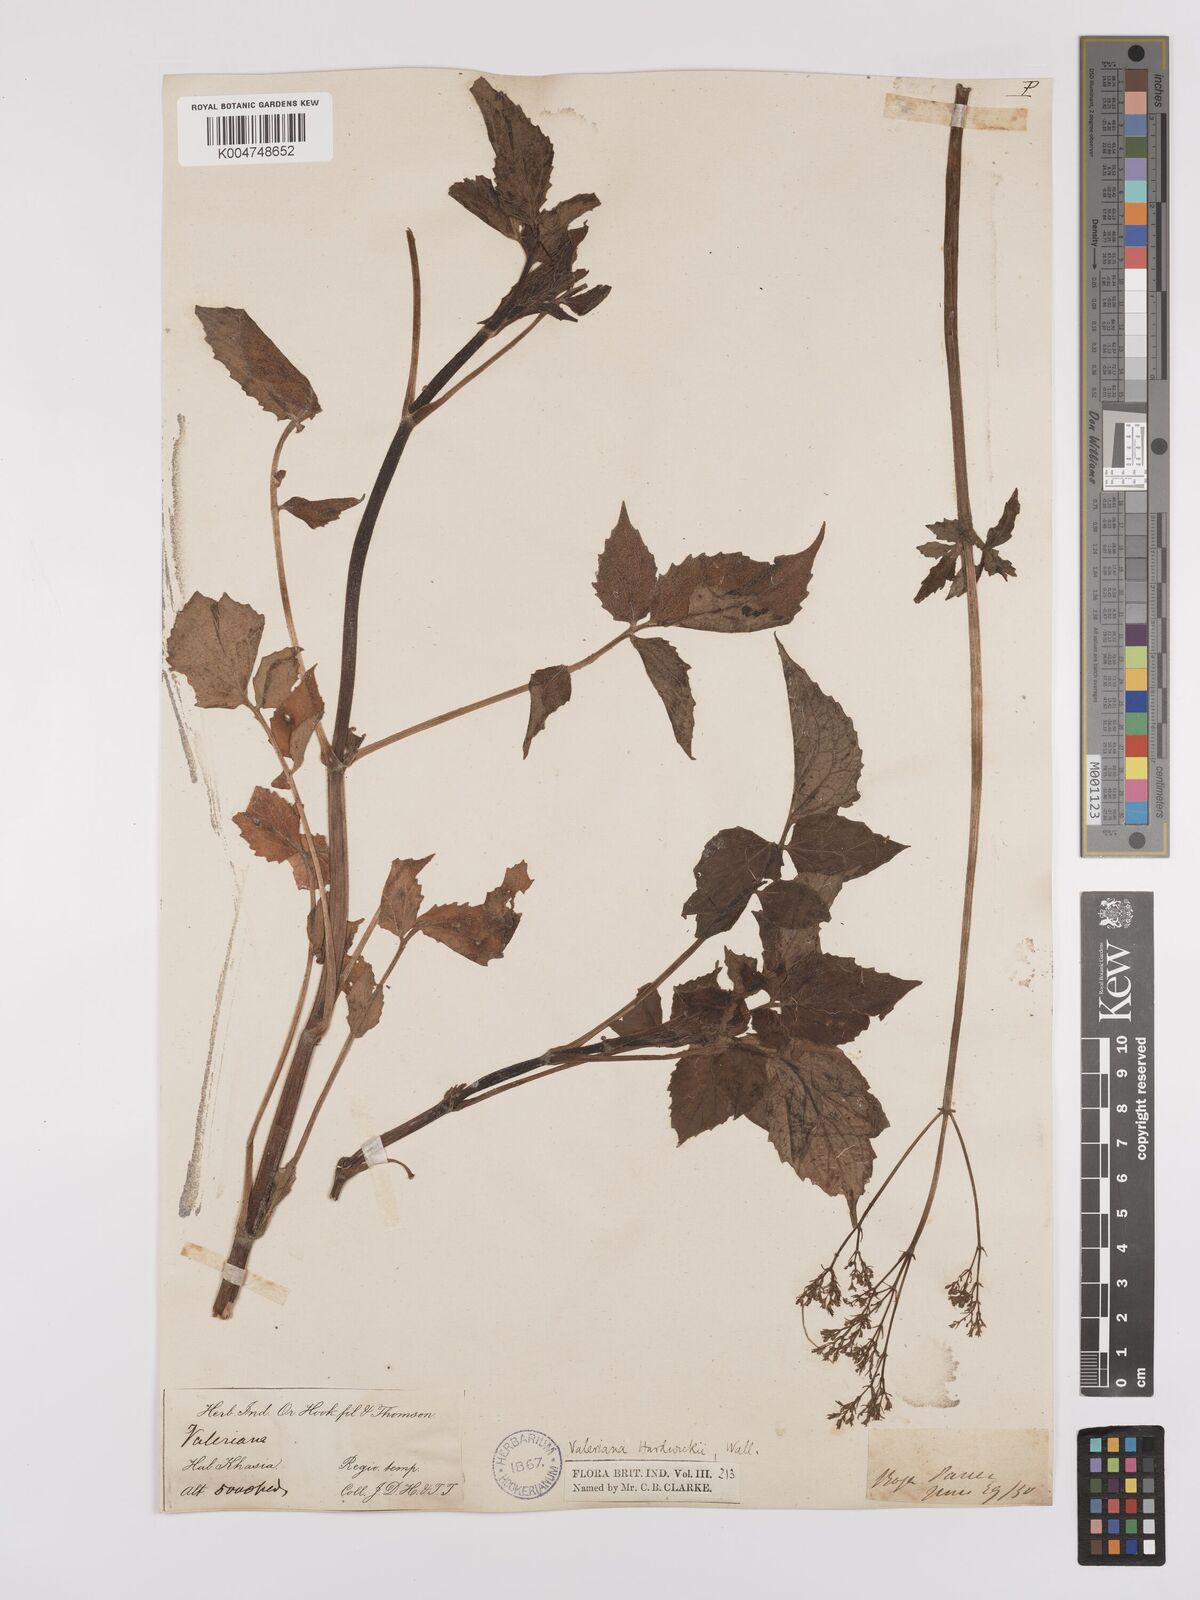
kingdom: Plantae
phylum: Tracheophyta
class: Magnoliopsida
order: Dipsacales
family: Caprifoliaceae
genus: Valeriana
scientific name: Valeriana hardwickei
